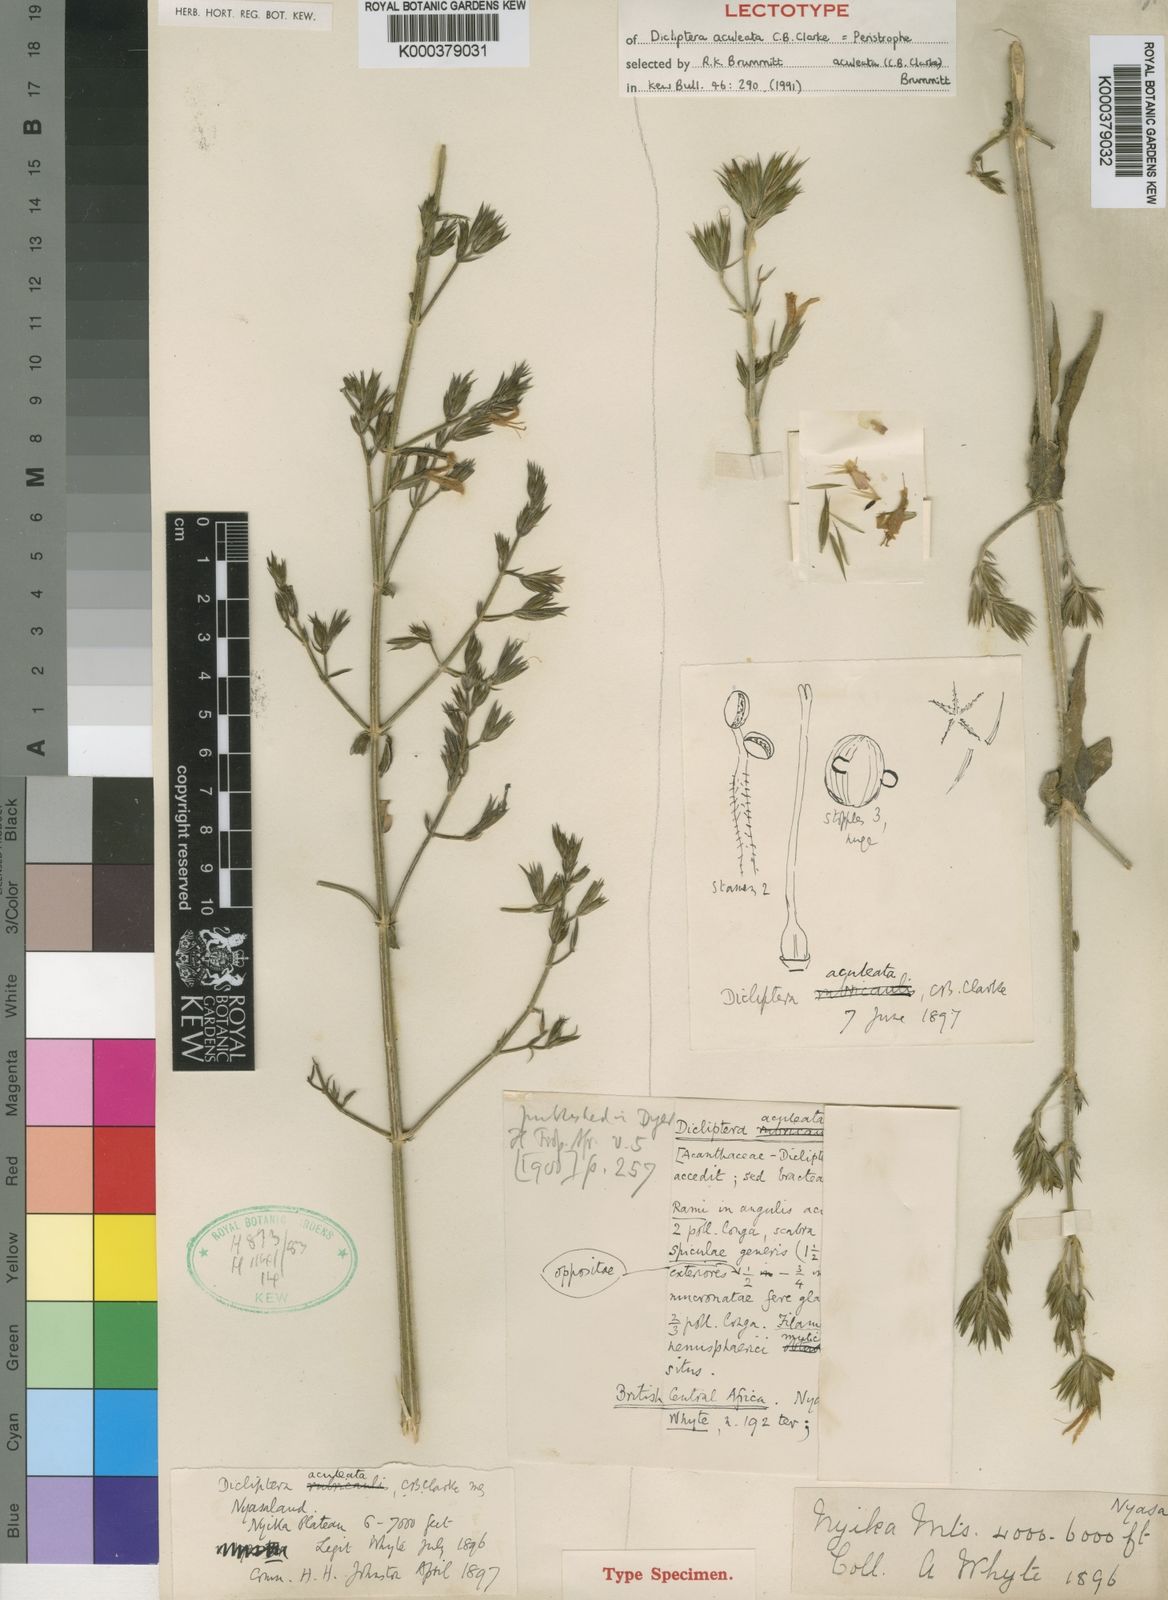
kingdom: Plantae
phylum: Tracheophyta
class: Magnoliopsida
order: Lamiales
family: Acanthaceae
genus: Dicliptera
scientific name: Dicliptera hensii
